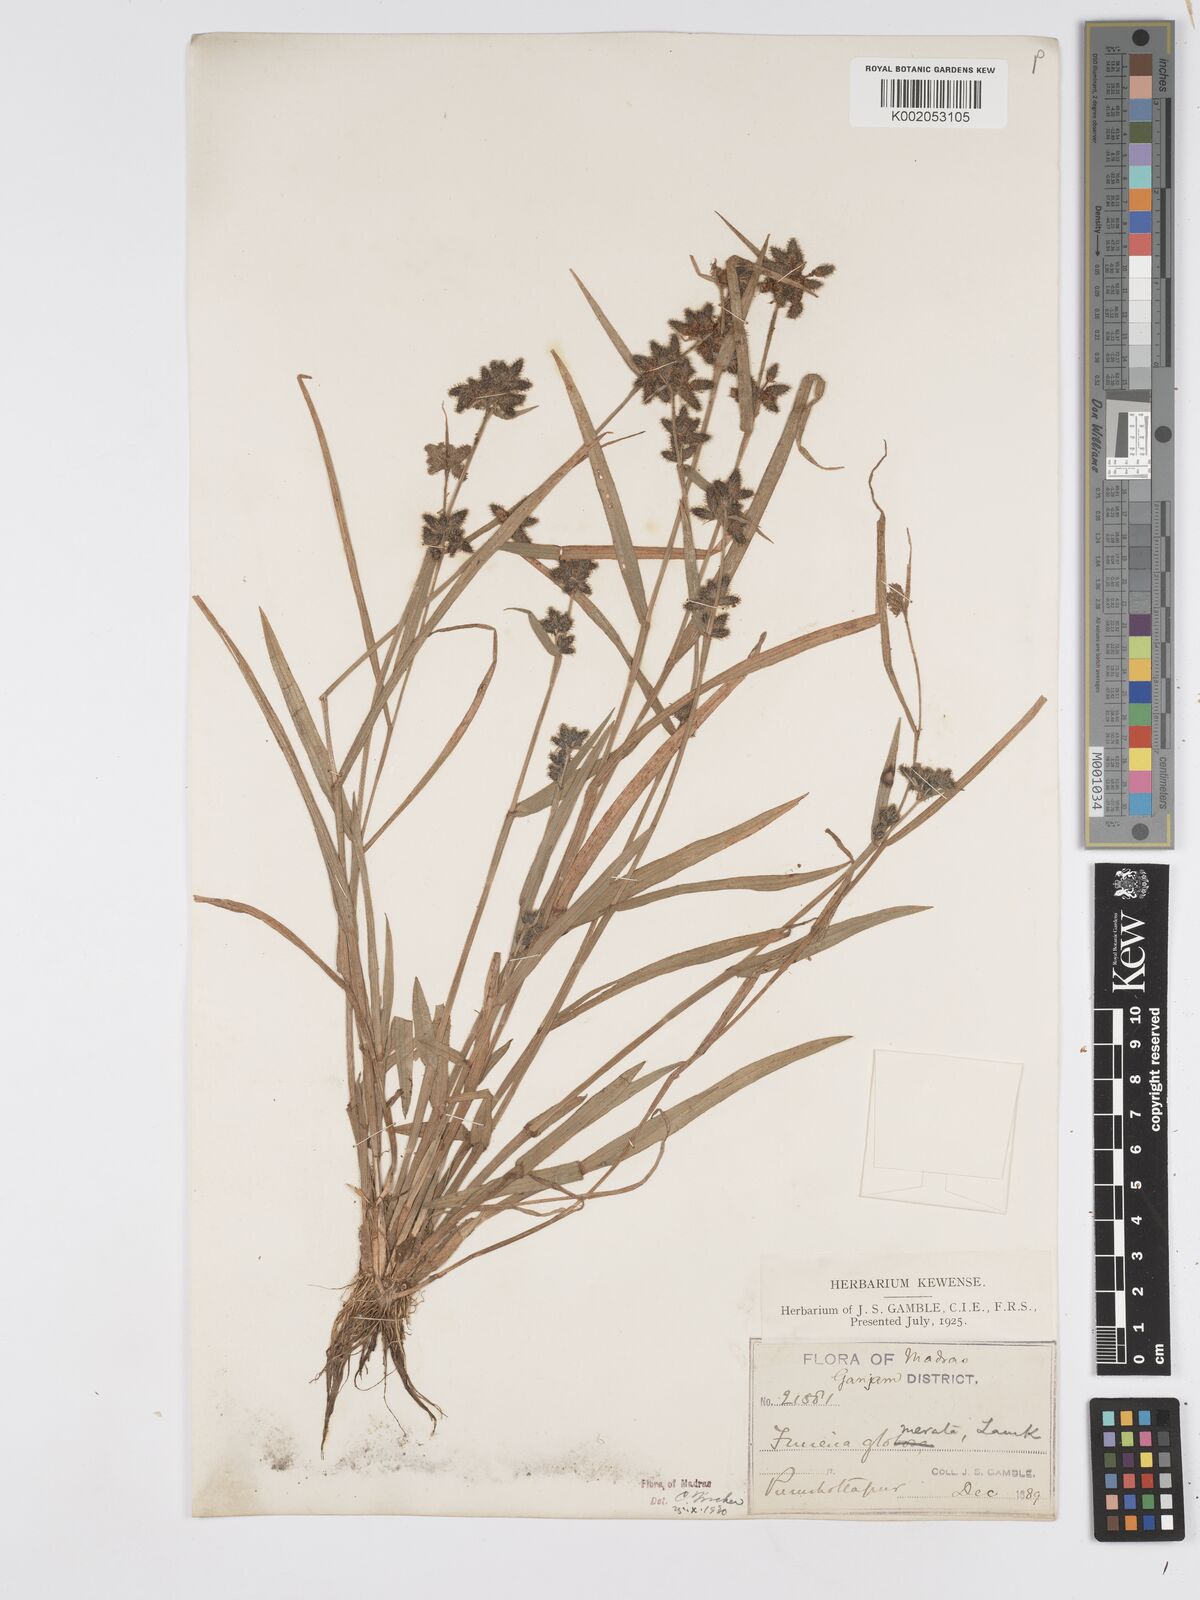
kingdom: Plantae
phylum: Tracheophyta
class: Liliopsida
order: Poales
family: Cyperaceae
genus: Fuirena
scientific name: Fuirena ciliaris
